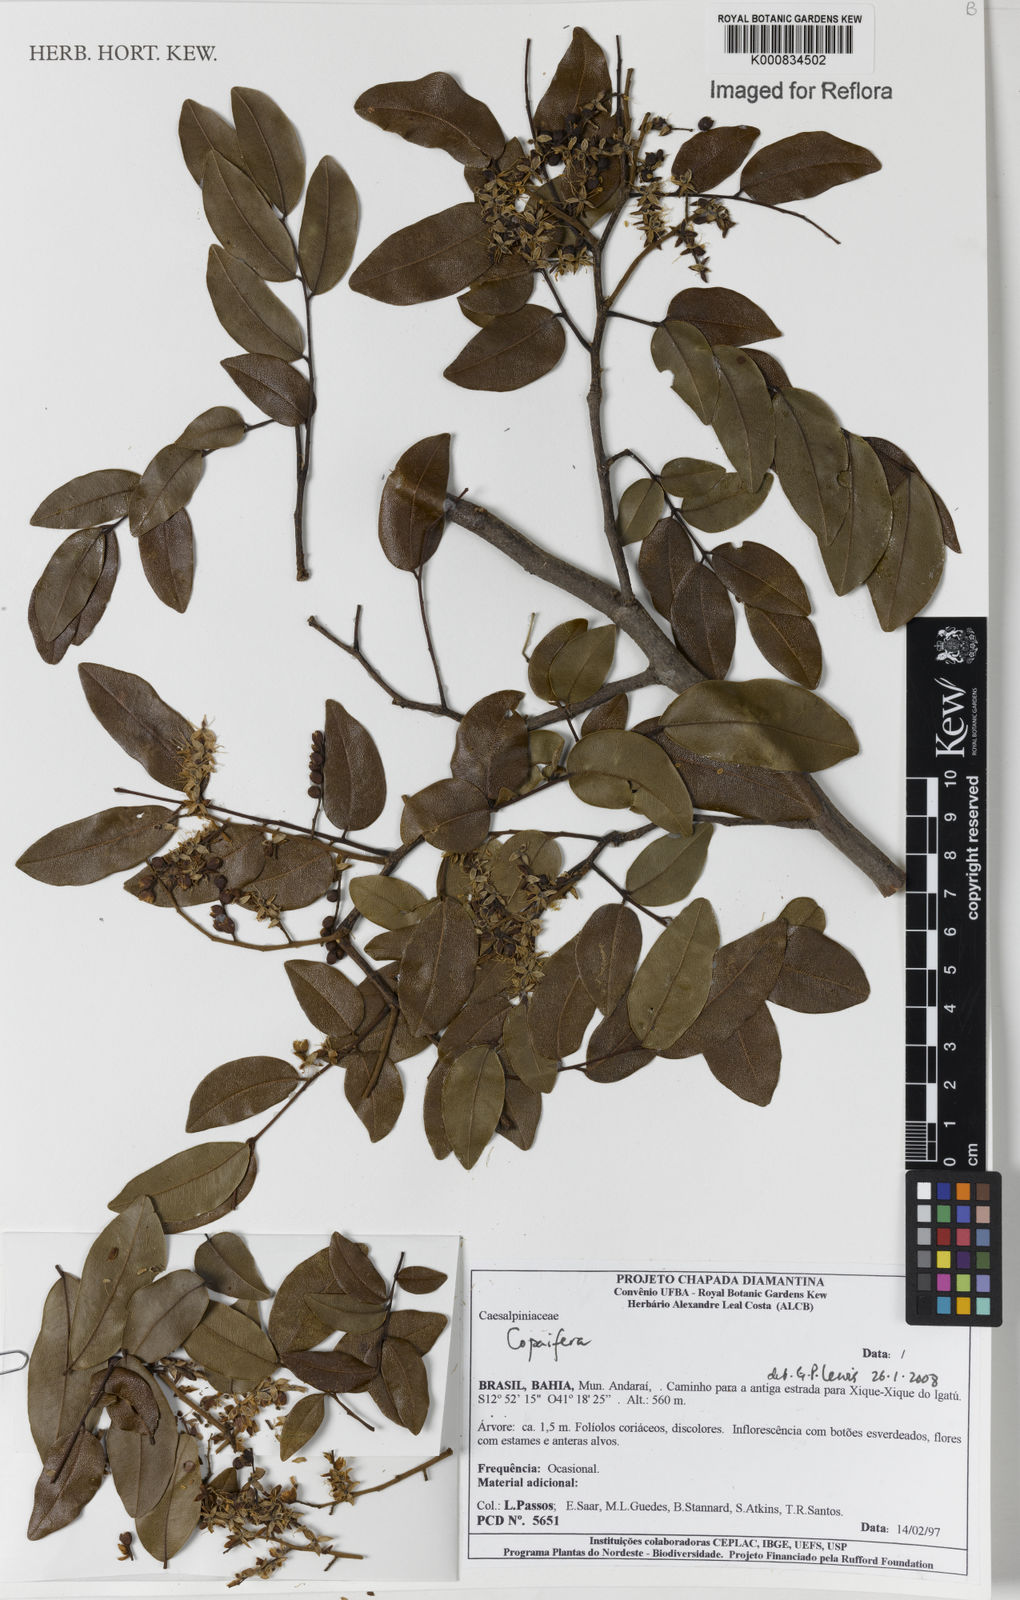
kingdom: Plantae
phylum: Tracheophyta
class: Magnoliopsida
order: Fabales
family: Fabaceae
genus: Copaifera
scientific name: Copaifera
